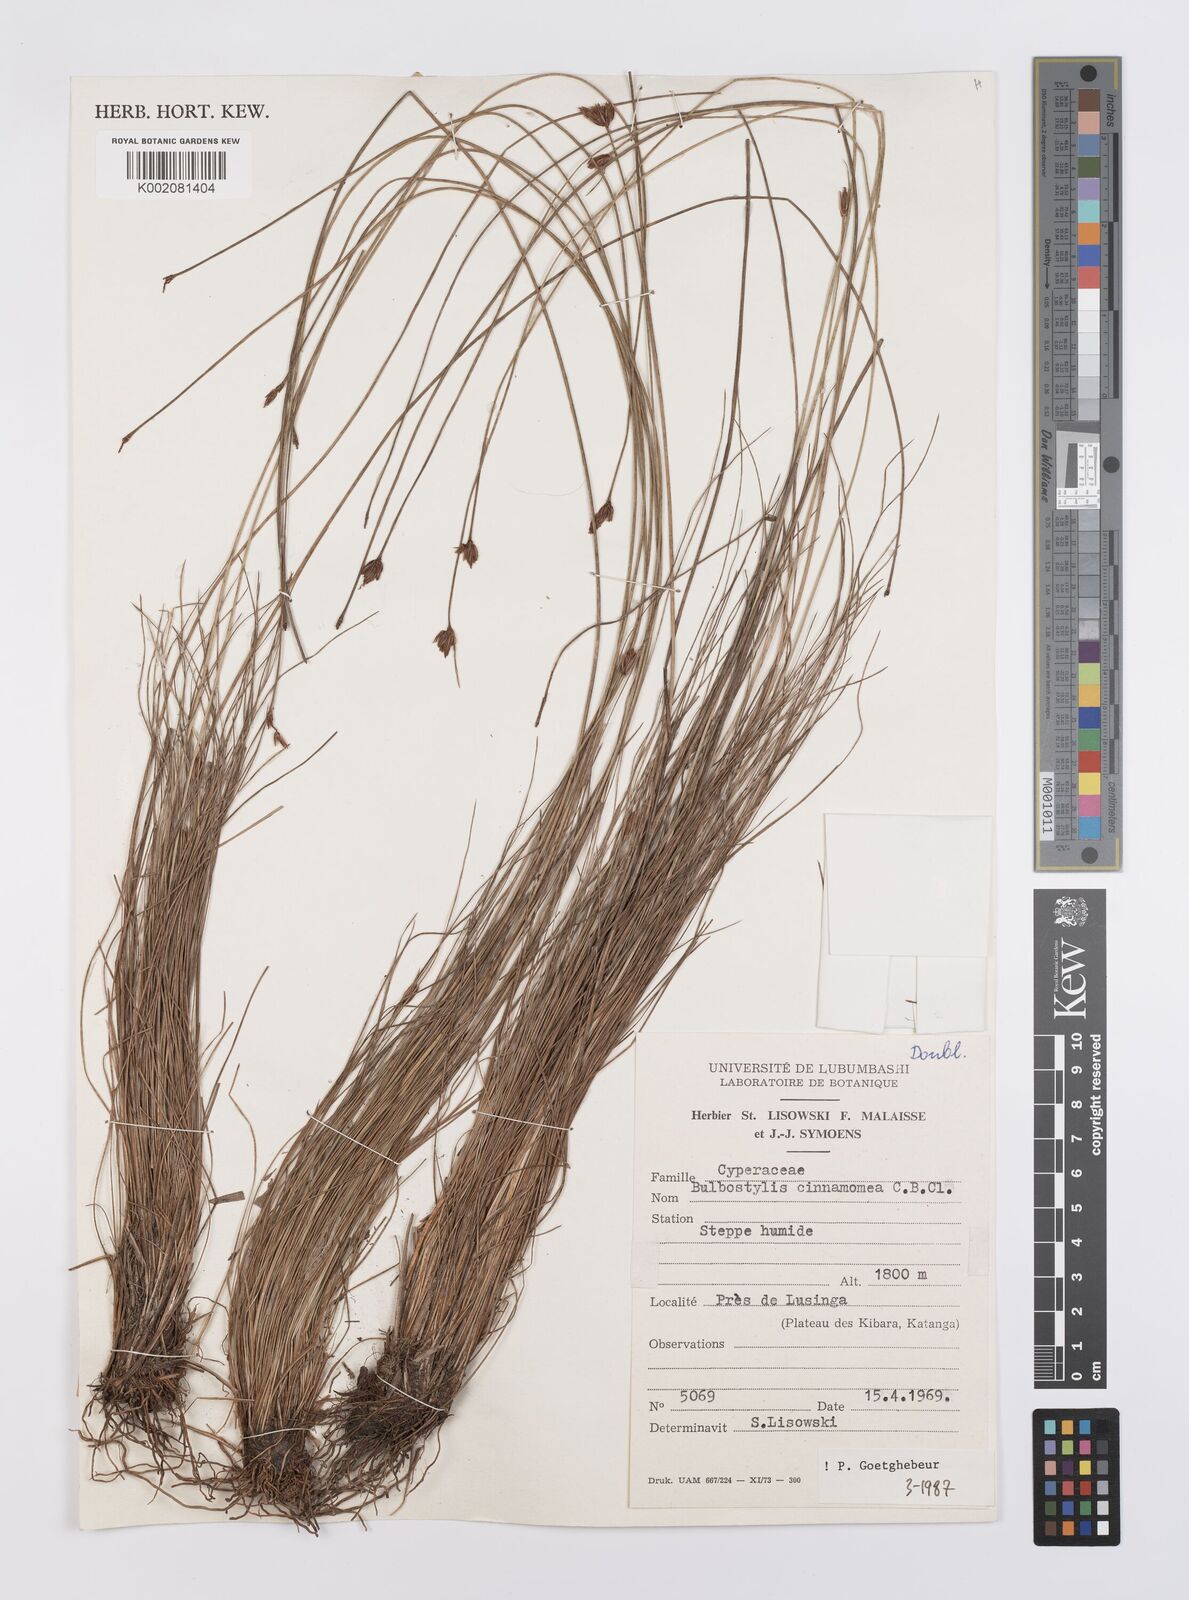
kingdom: Plantae
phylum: Tracheophyta
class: Liliopsida
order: Poales
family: Cyperaceae
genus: Bulbostylis
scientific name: Bulbostylis schoenoides
